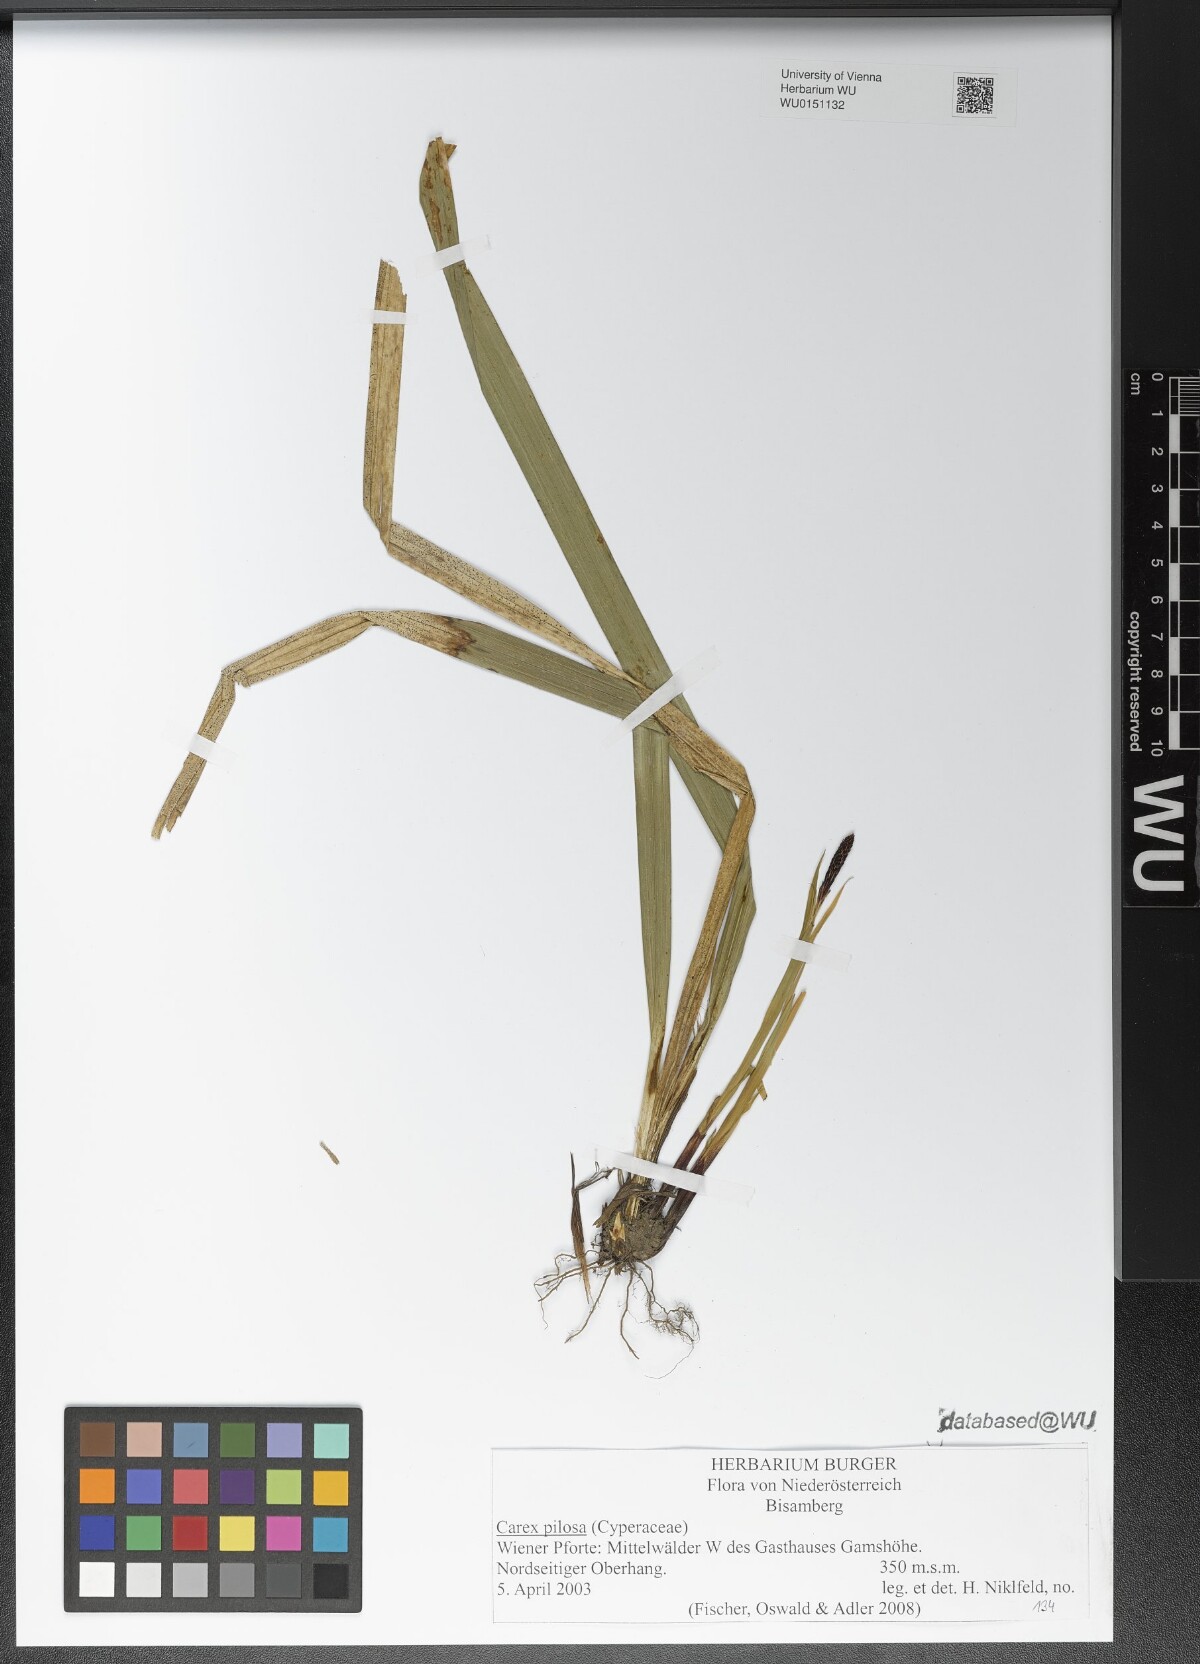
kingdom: Plantae
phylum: Tracheophyta
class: Liliopsida
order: Poales
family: Cyperaceae
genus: Carex
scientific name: Carex pilosa
